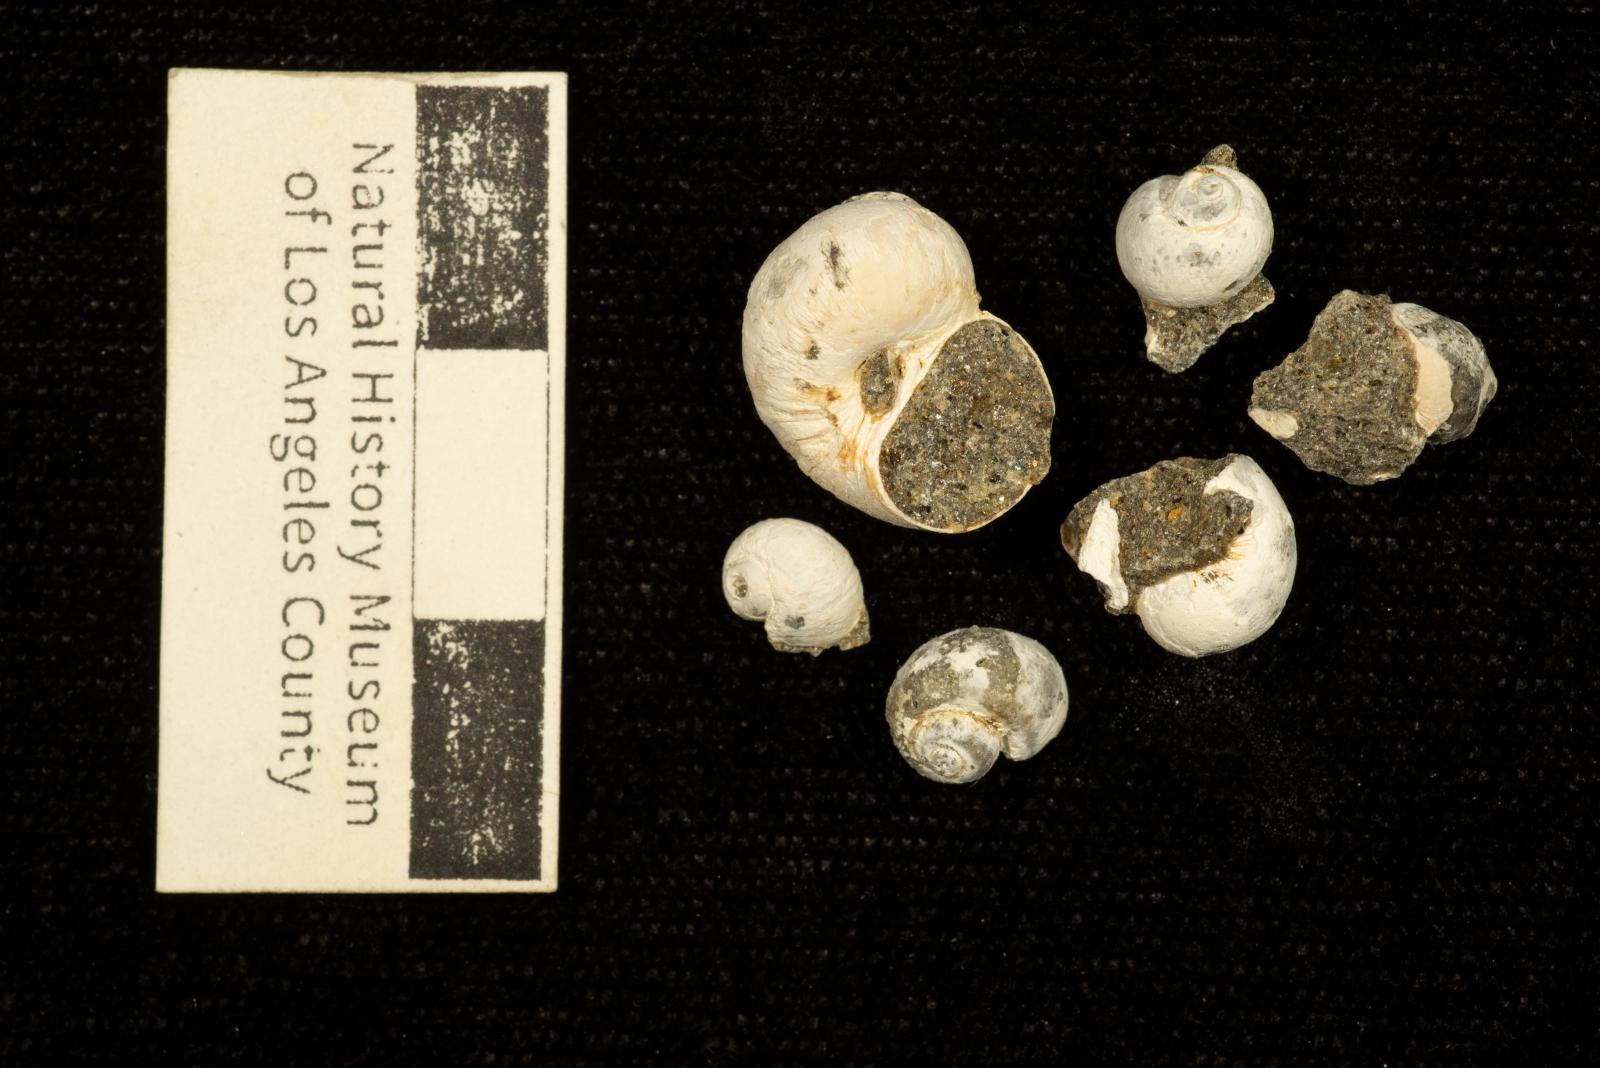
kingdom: Animalia
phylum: Mollusca
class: Gastropoda
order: Littorinimorpha
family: Naticidae
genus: Polinices
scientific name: Polinices
